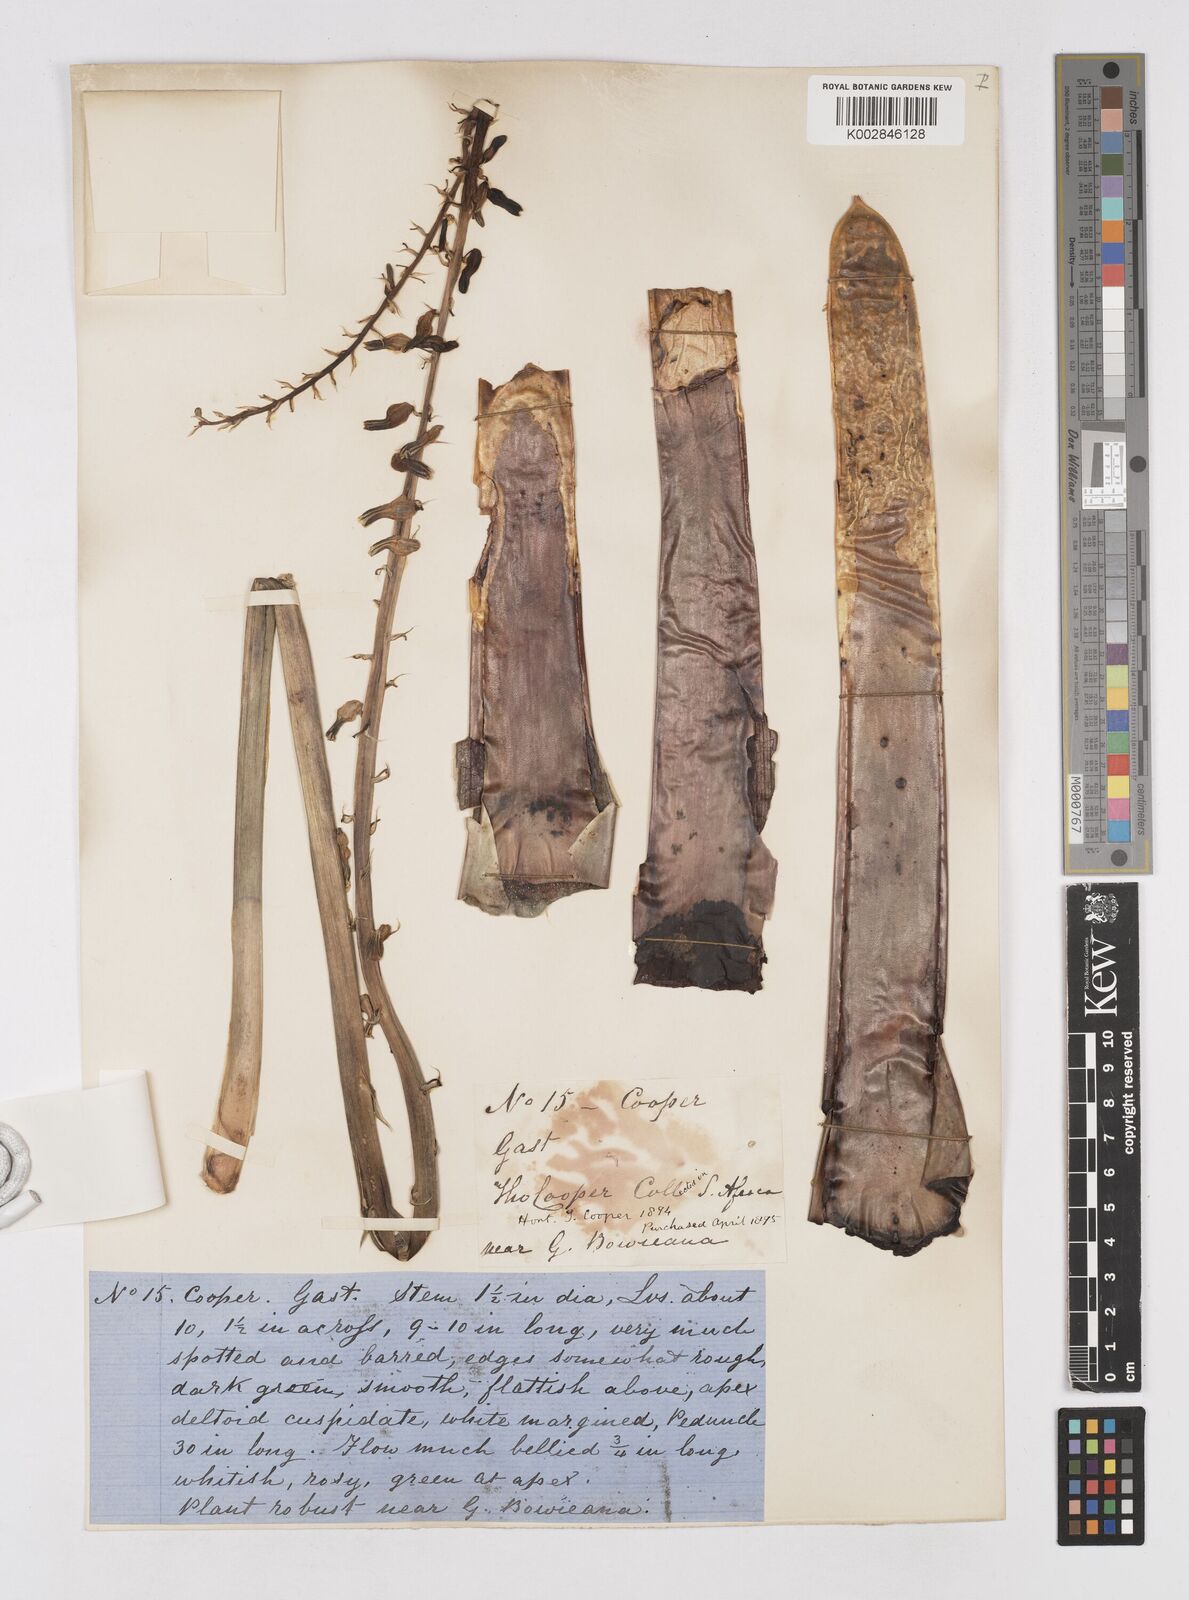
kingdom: Plantae
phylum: Tracheophyta
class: Liliopsida
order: Asparagales
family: Asphodelaceae
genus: Gasteria
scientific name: Gasteria
